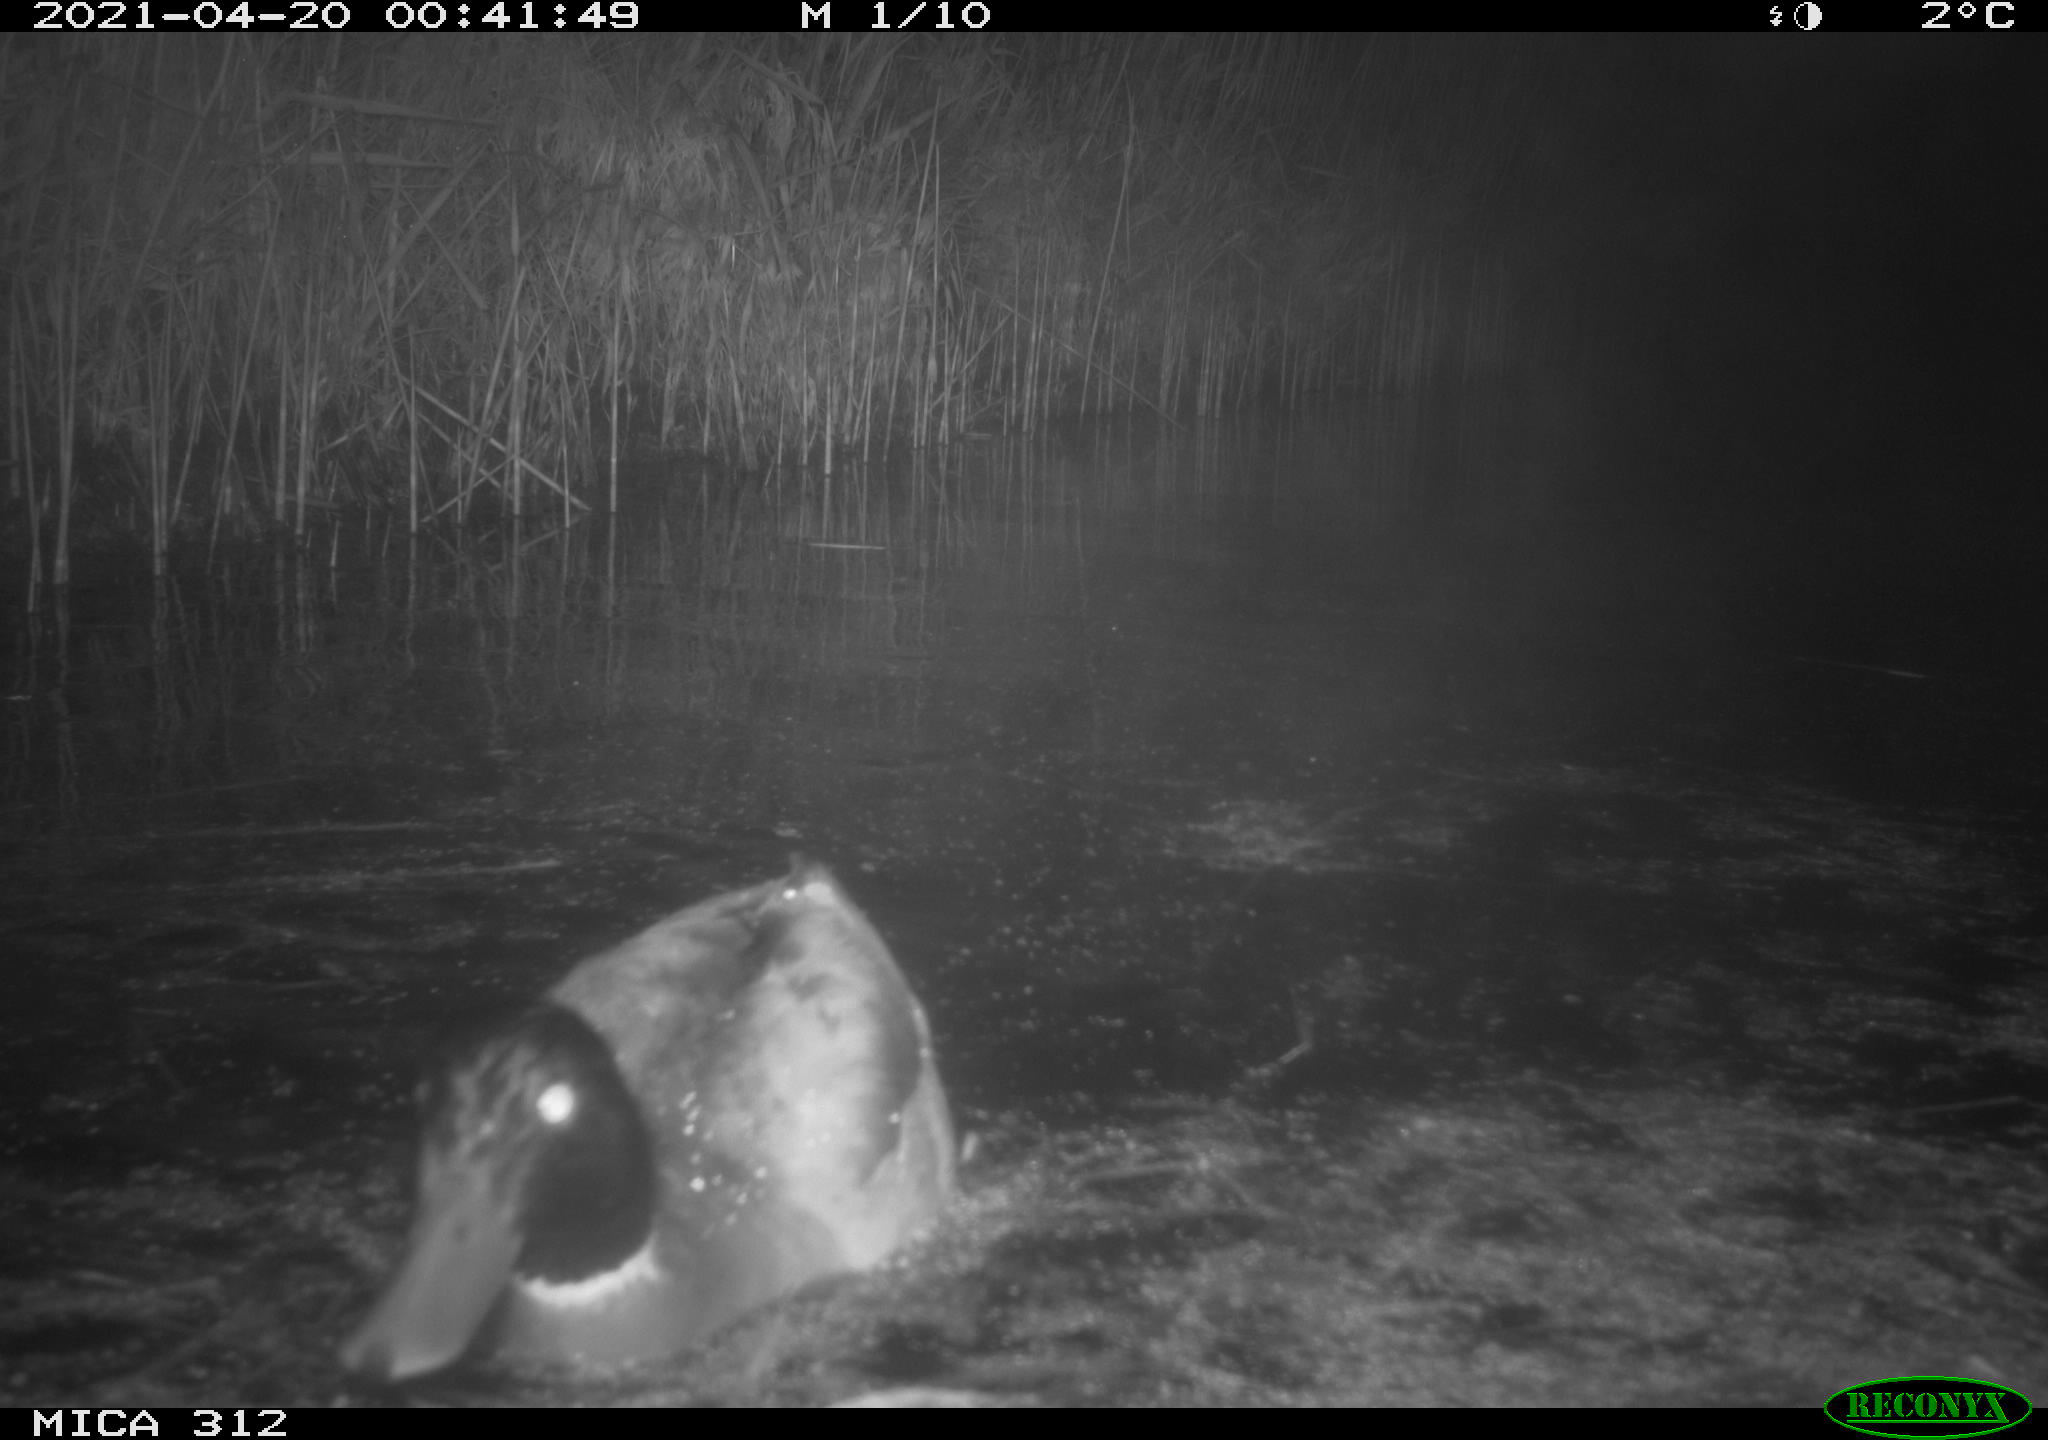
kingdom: Animalia
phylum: Chordata
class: Aves
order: Anseriformes
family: Anatidae
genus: Anas
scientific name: Anas platyrhynchos
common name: Mallard
